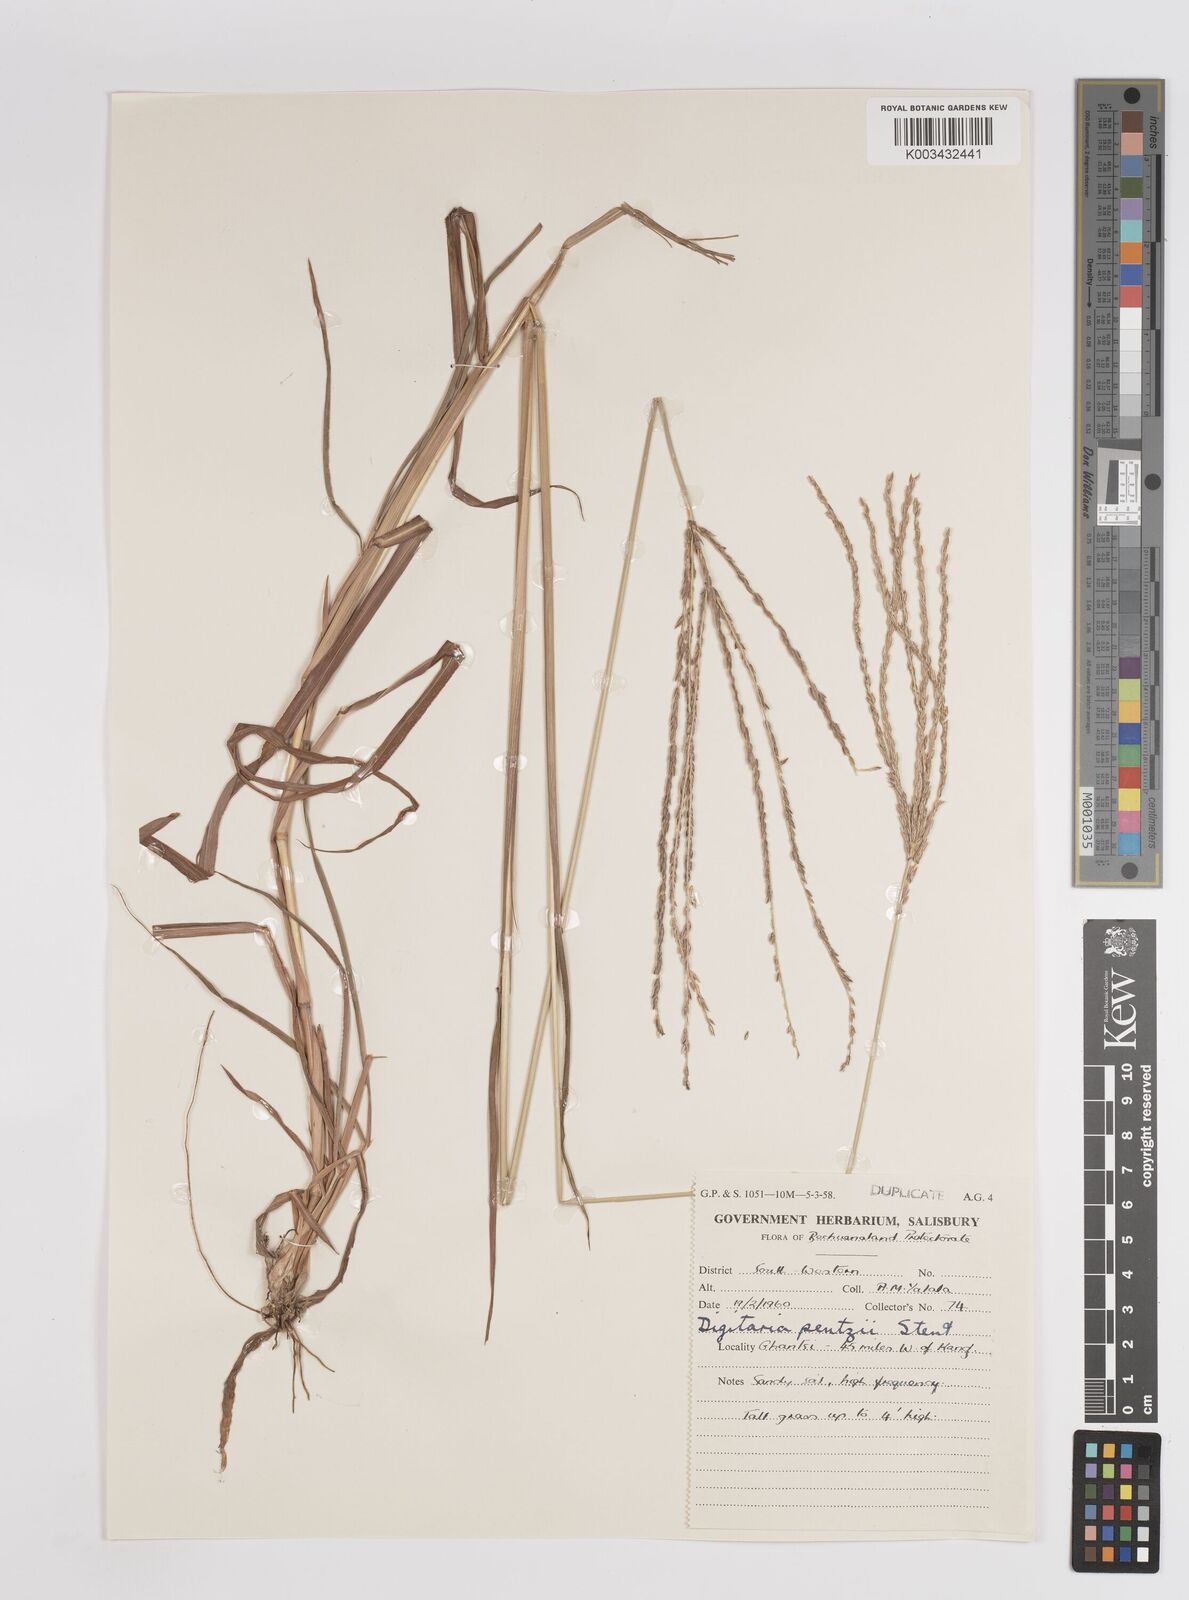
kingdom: Plantae
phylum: Tracheophyta
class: Liliopsida
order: Poales
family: Poaceae
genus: Digitaria
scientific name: Digitaria eriantha
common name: Digitgrass
